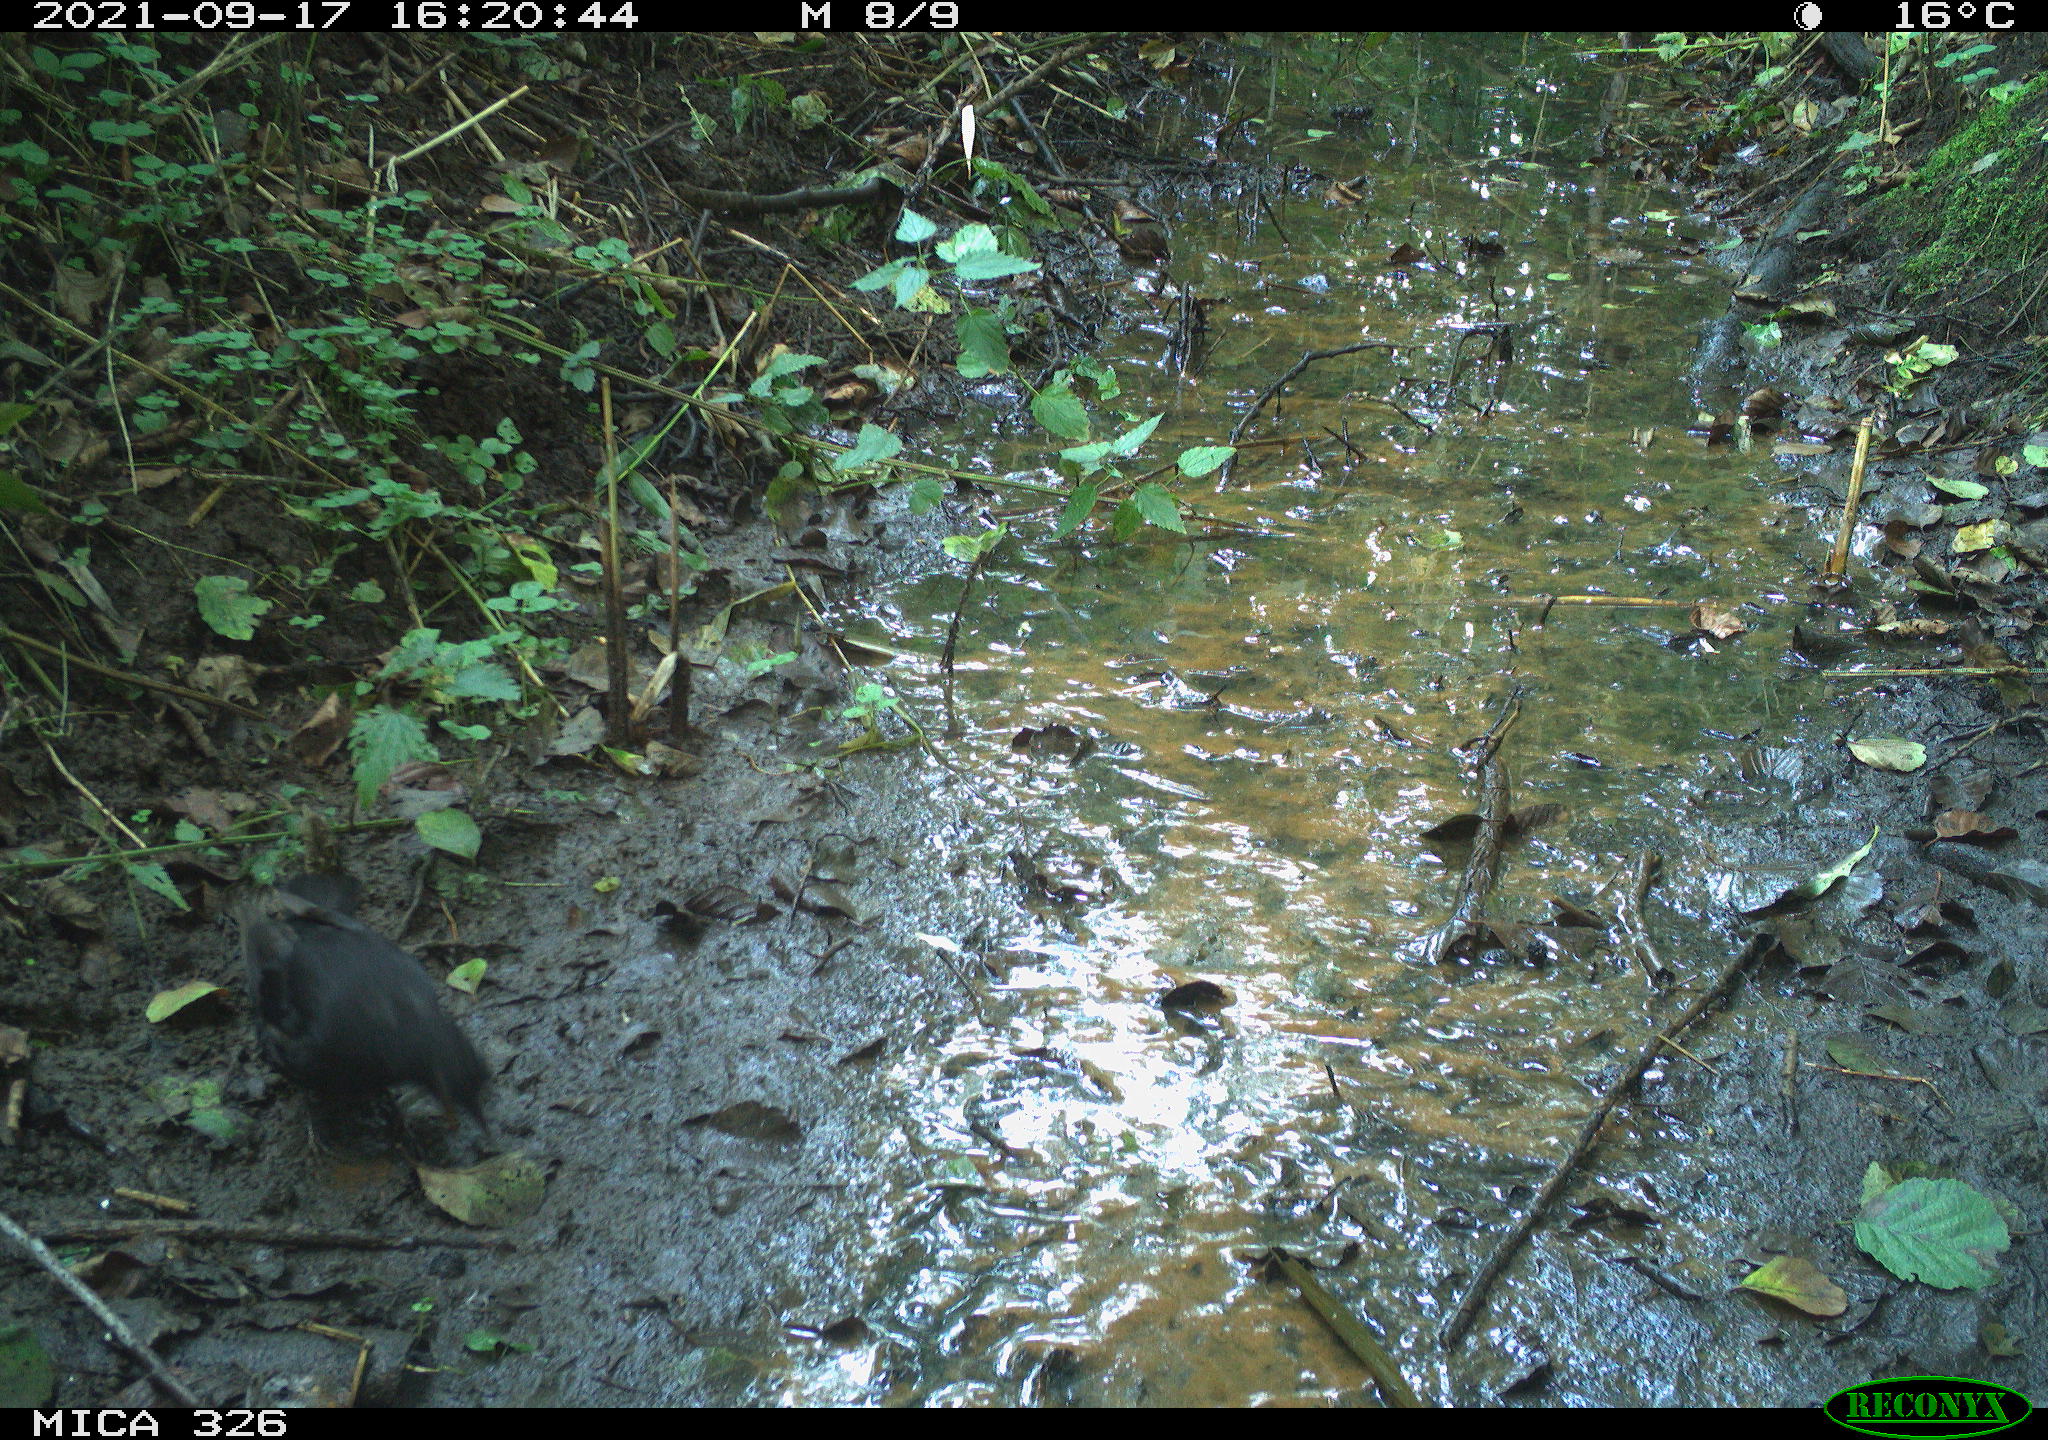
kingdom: Animalia
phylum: Chordata
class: Aves
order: Passeriformes
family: Turdidae
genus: Turdus
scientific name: Turdus merula
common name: Common blackbird
